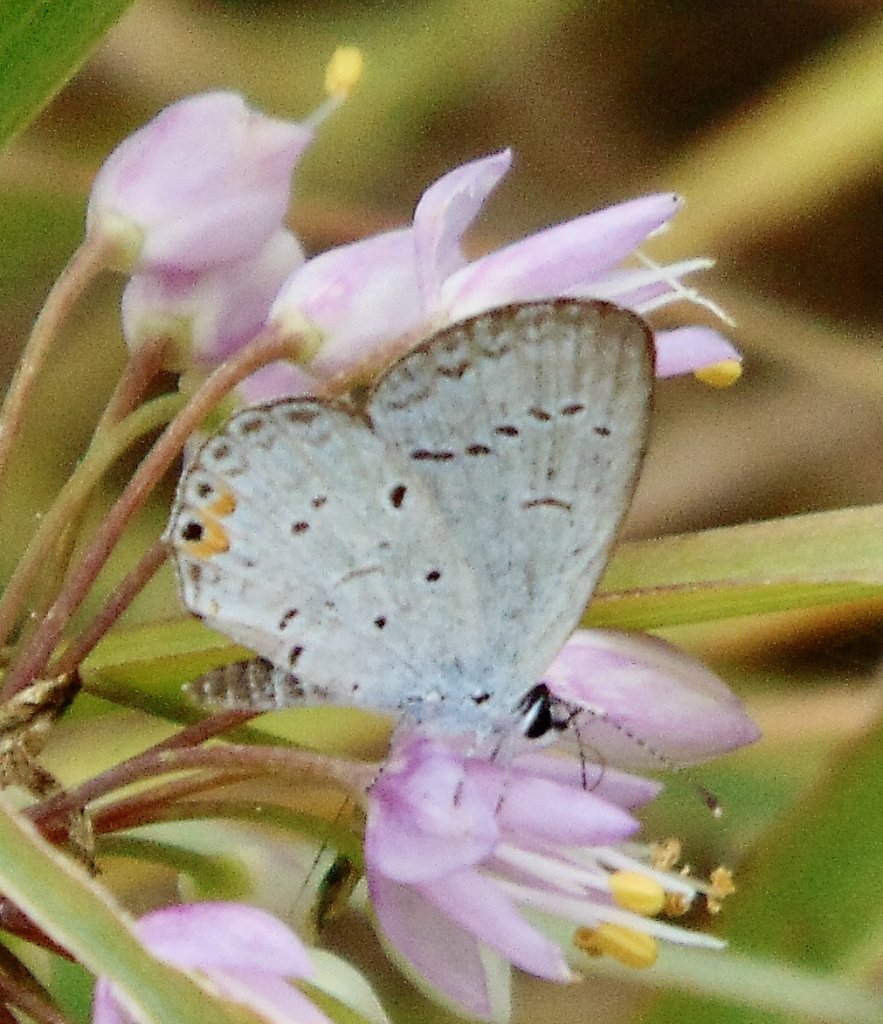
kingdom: Animalia
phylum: Arthropoda
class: Insecta
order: Lepidoptera
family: Lycaenidae
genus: Elkalyce
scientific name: Elkalyce comyntas
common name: Eastern Tailed-Blue
